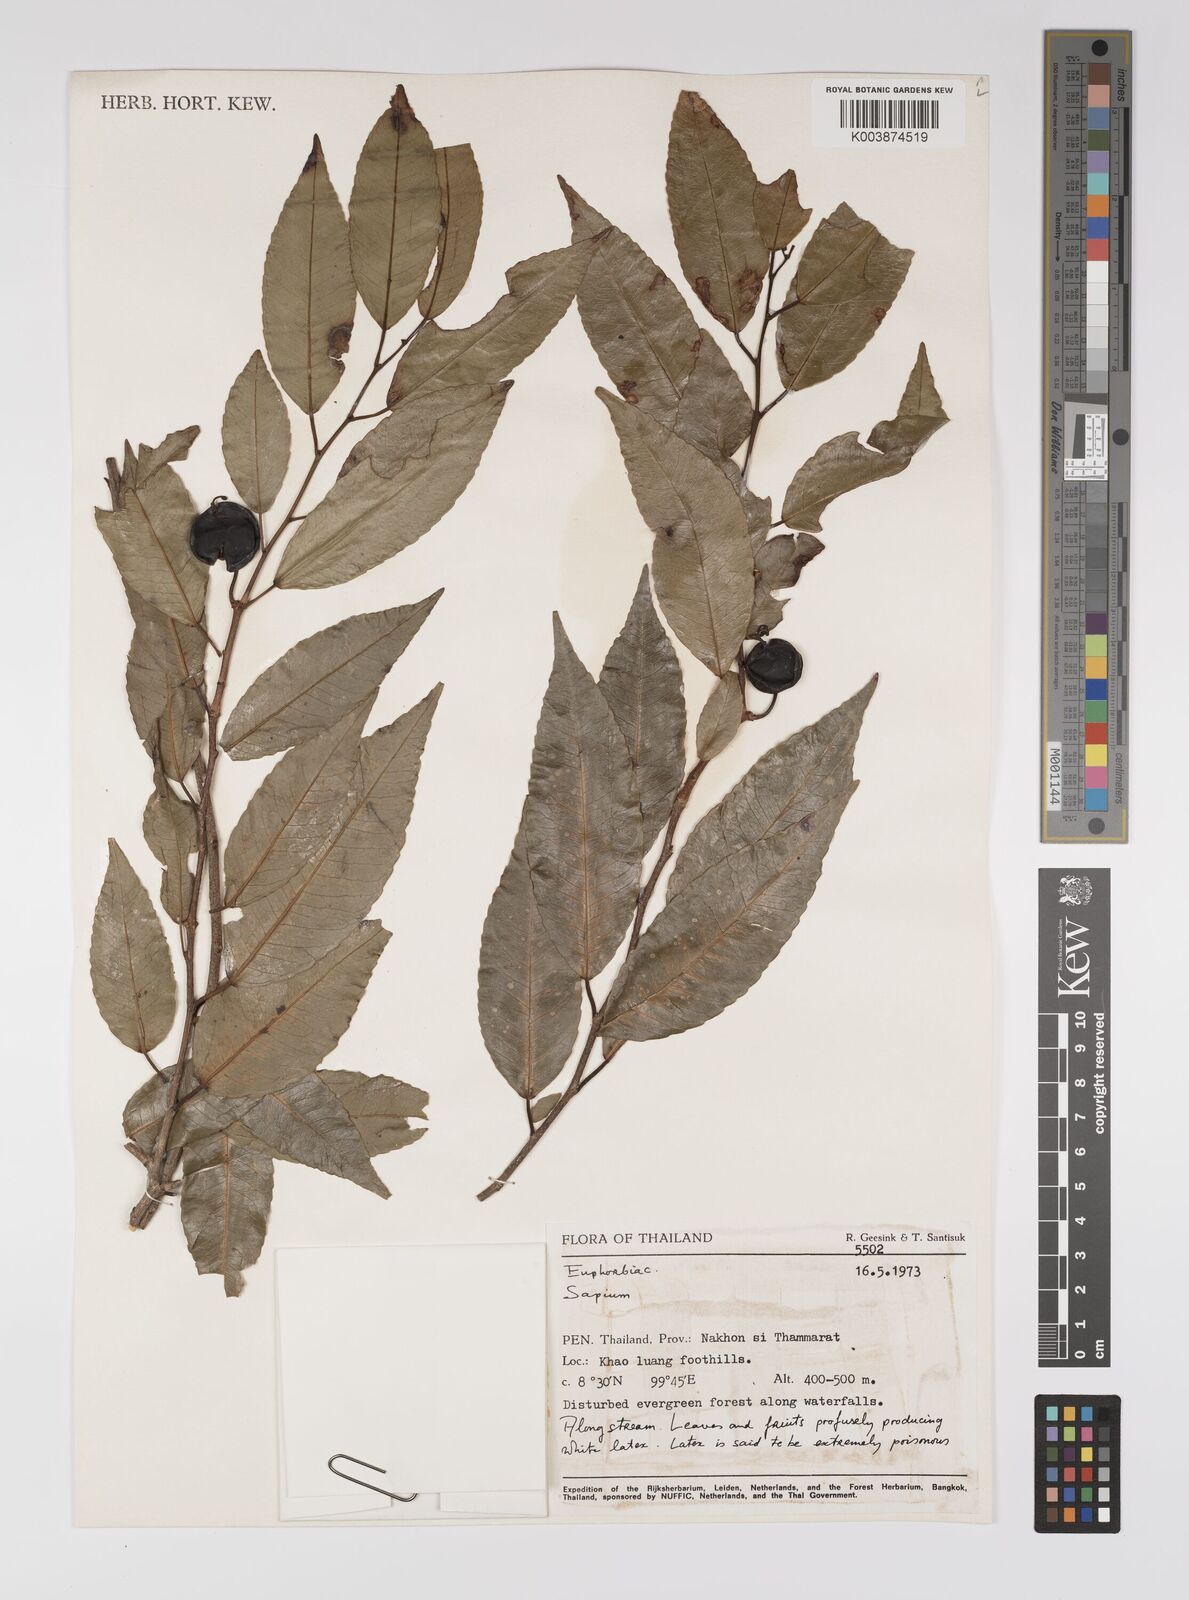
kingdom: Plantae
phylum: Tracheophyta
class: Magnoliopsida
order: Malpighiales
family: Euphorbiaceae
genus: Shirakiopsis
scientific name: Shirakiopsis indica
